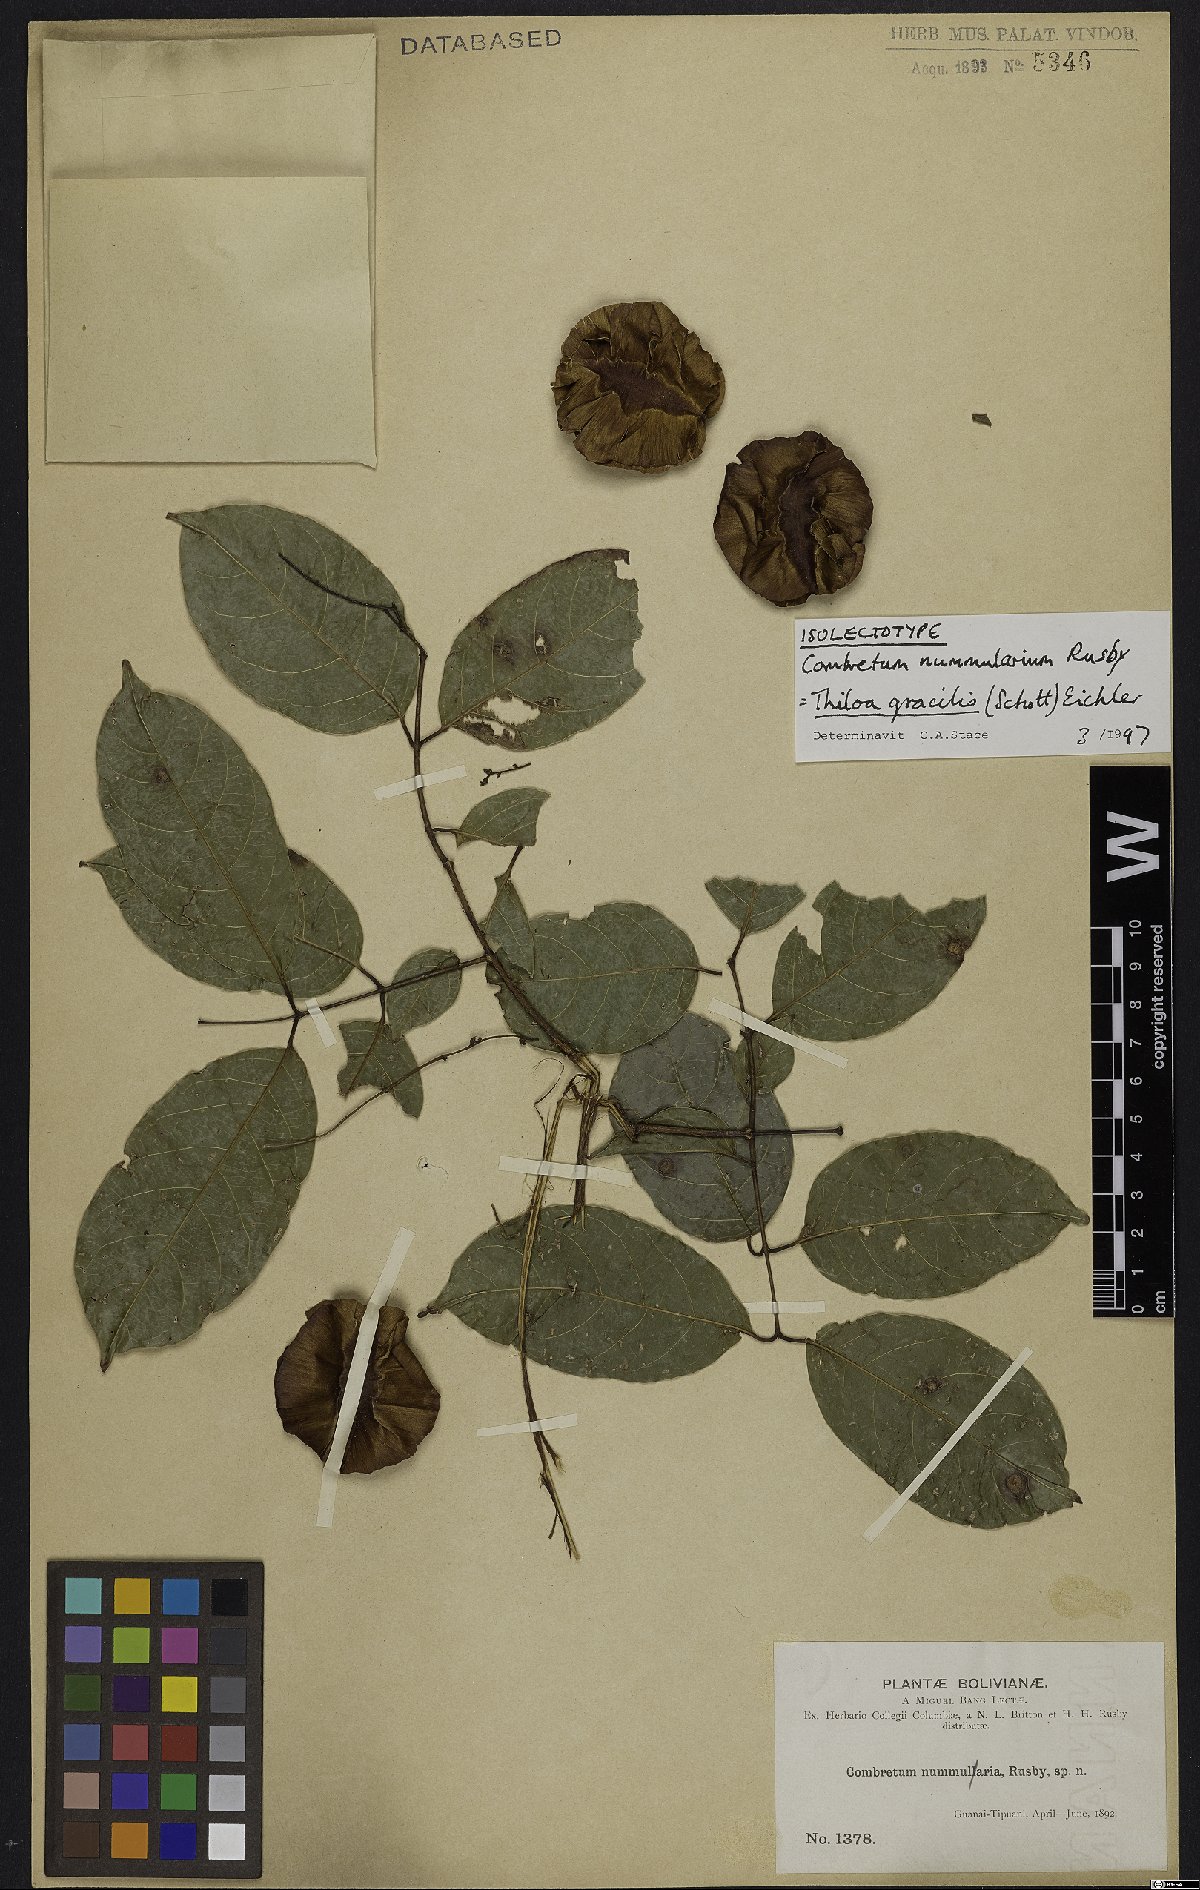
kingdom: Plantae
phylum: Tracheophyta
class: Magnoliopsida
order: Myrtales
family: Combretaceae
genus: Combretum
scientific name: Combretum gracile
